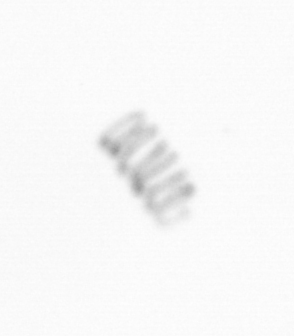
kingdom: Chromista
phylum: Ochrophyta
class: Bacillariophyceae
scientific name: Bacillariophyceae
